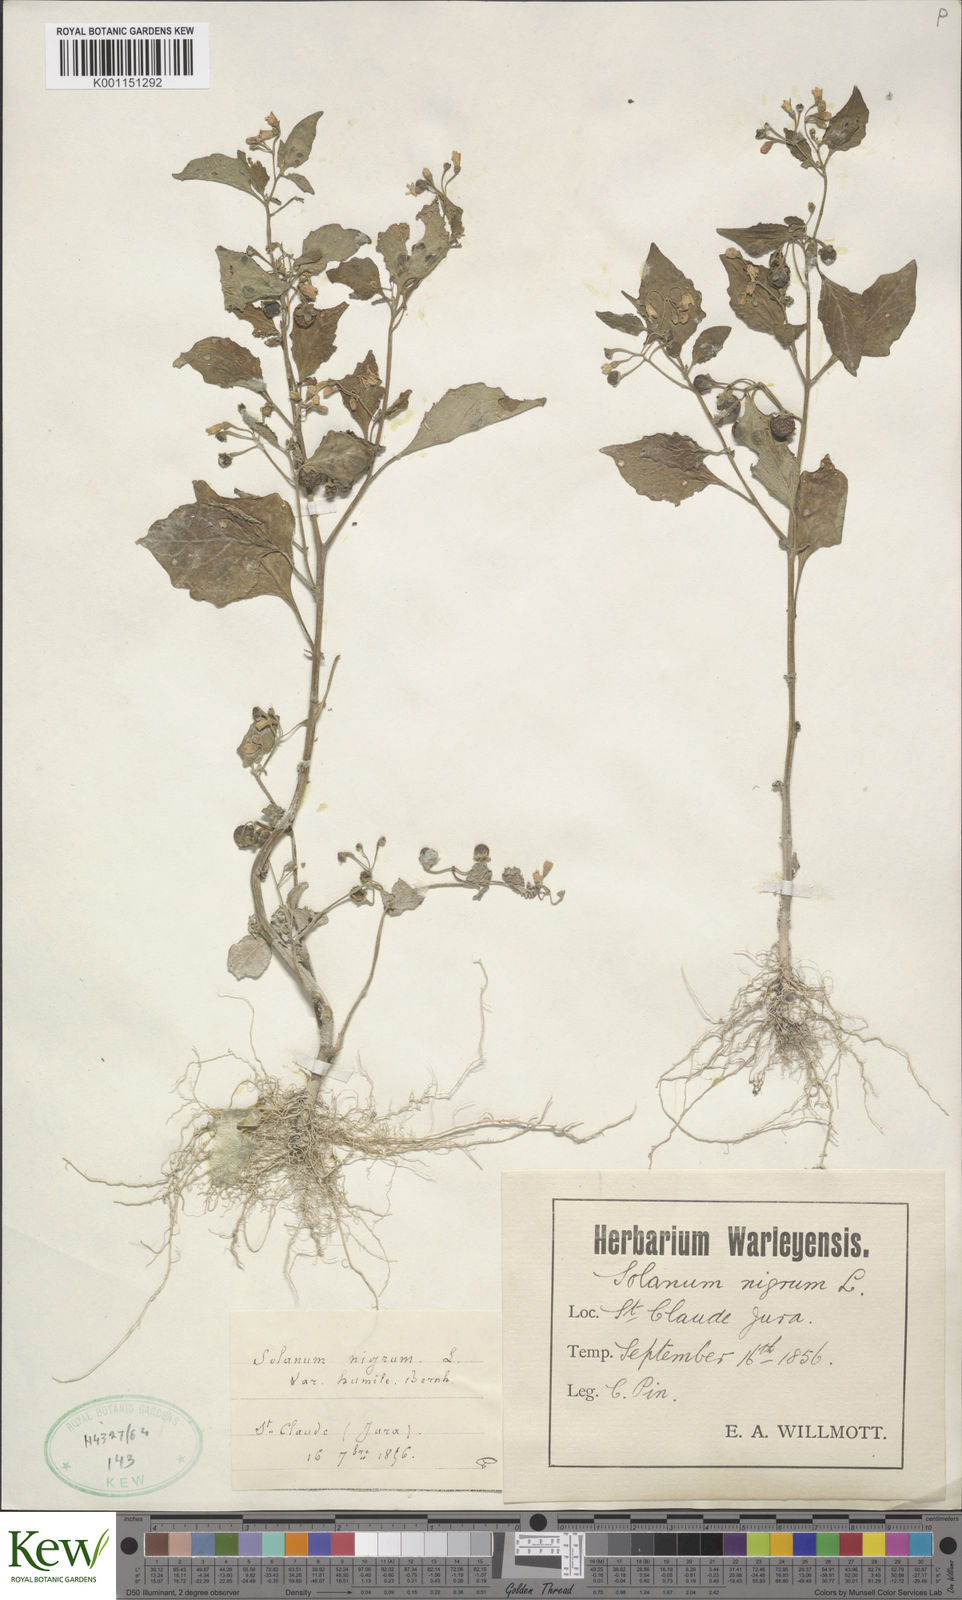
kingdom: Plantae
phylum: Tracheophyta
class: Magnoliopsida
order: Solanales
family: Solanaceae
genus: Solanum
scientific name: Solanum nigrum
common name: Black nightshade
